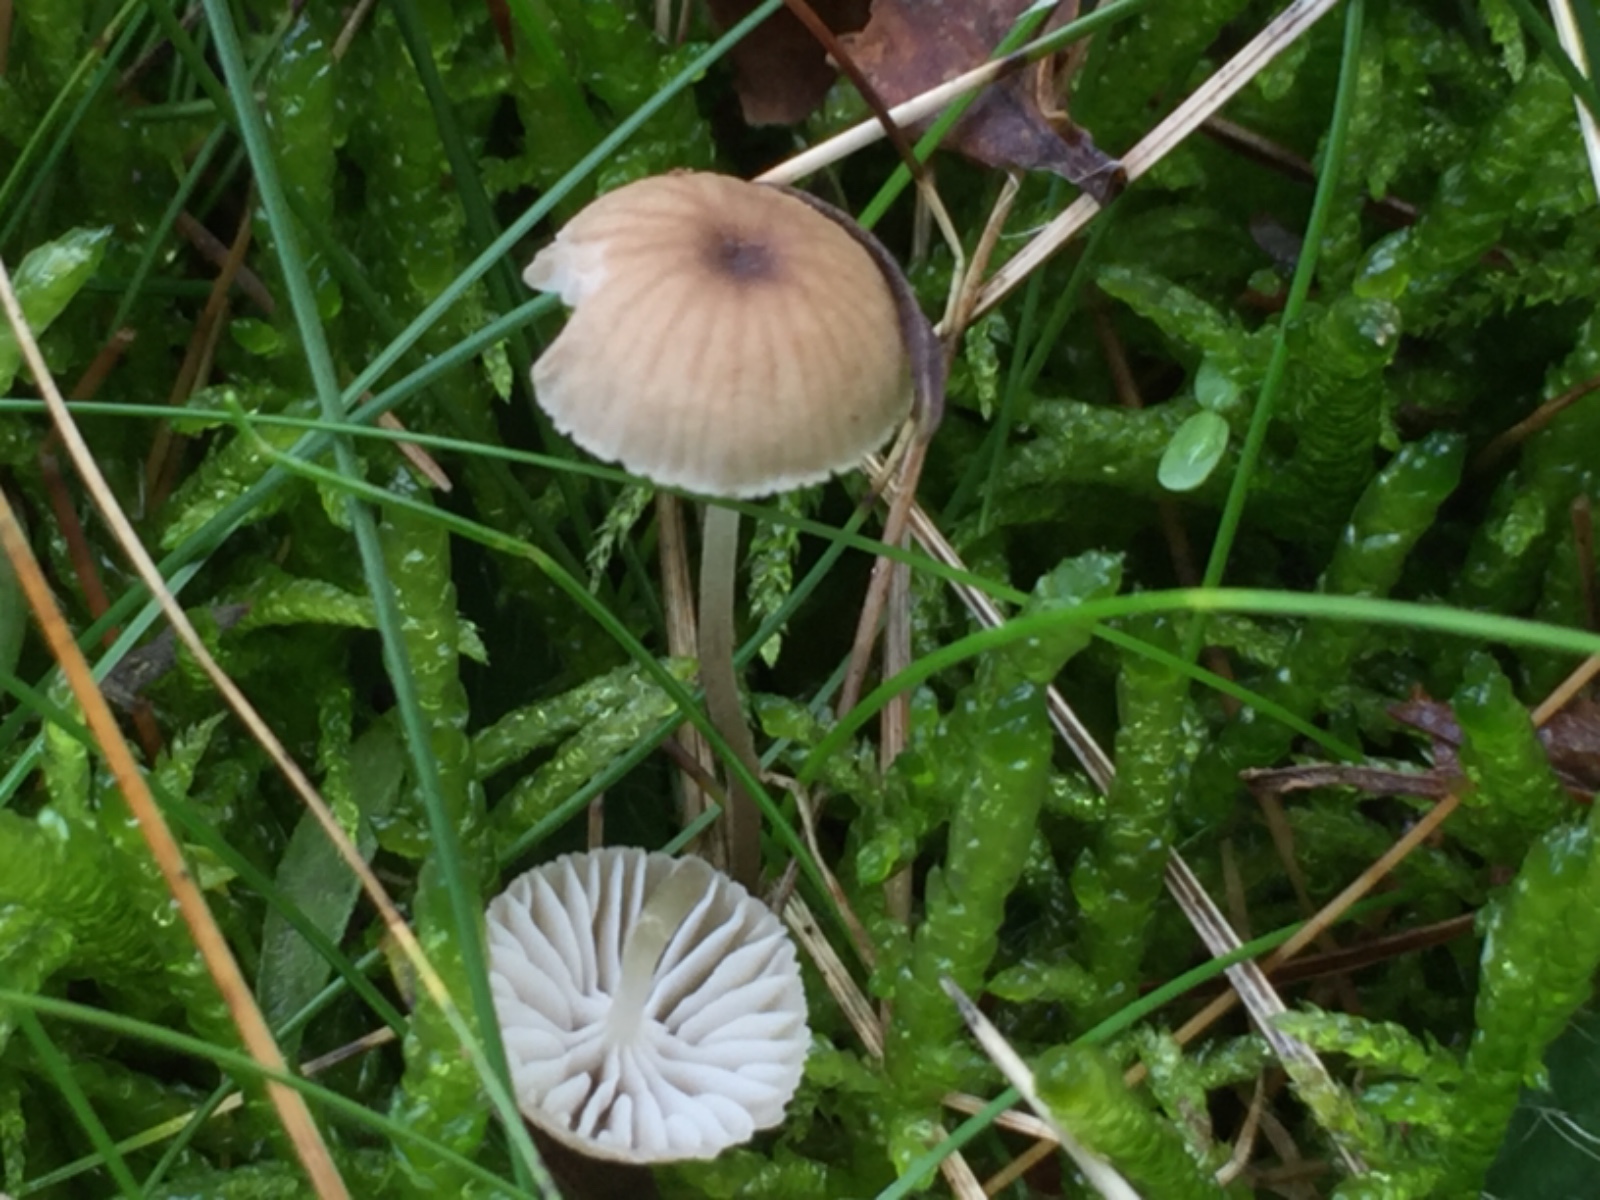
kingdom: Fungi
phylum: Basidiomycota
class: Agaricomycetes
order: Agaricales
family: Mycenaceae
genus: Mycena
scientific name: Mycena
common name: huesvamp
